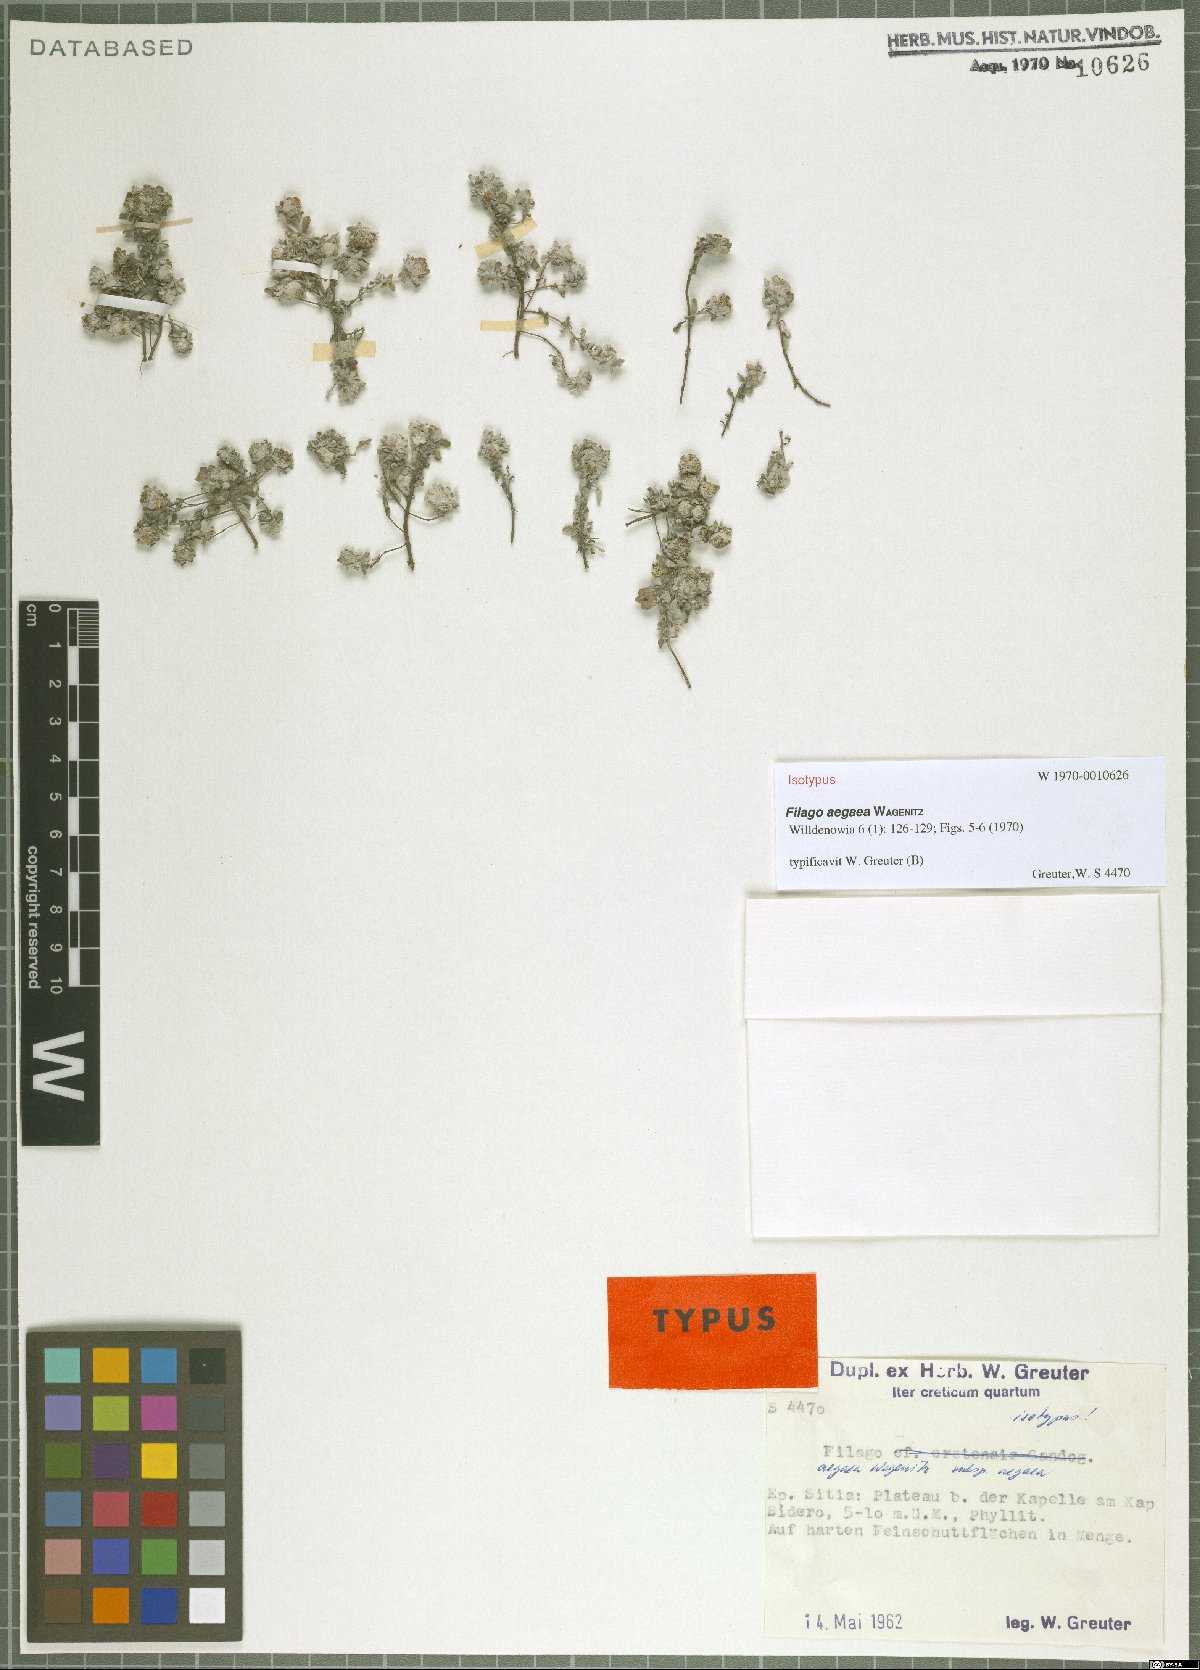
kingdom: Plantae
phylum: Tracheophyta
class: Magnoliopsida
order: Asterales
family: Asteraceae
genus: Filago
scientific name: Filago aegaea
